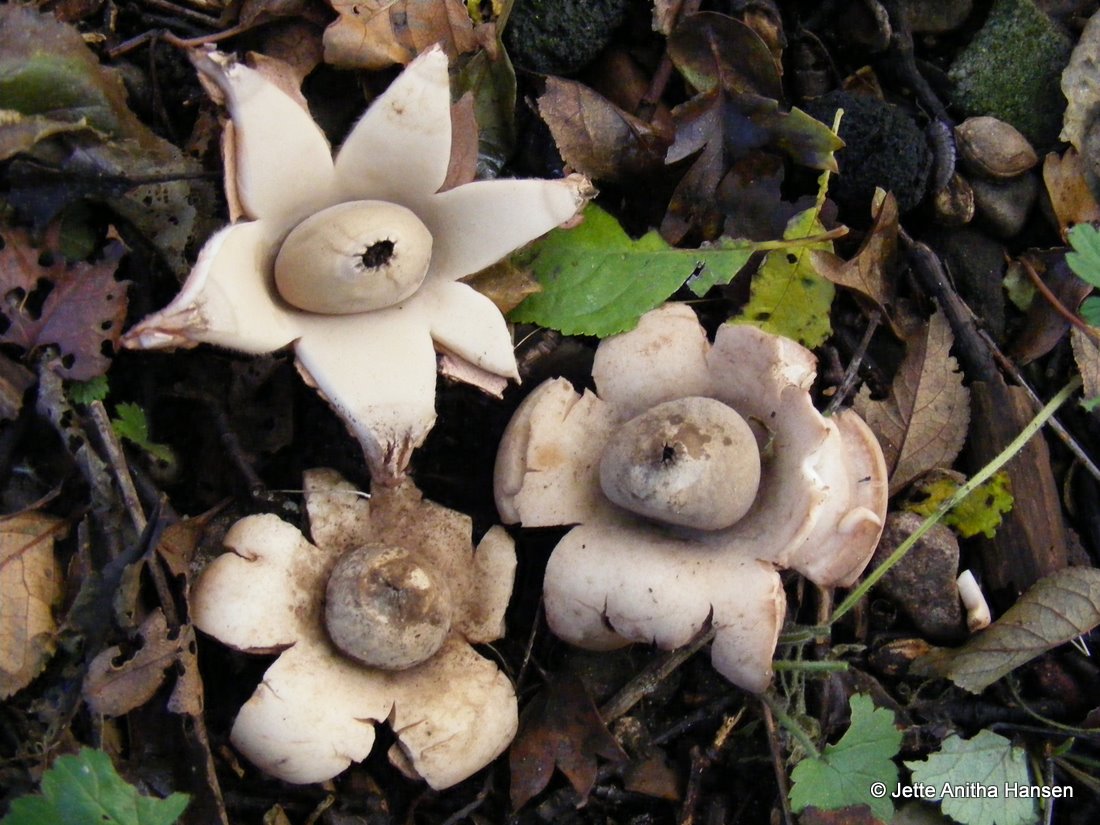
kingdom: Fungi
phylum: Basidiomycota
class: Agaricomycetes
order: Geastrales
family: Geastraceae
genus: Geastrum
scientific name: Geastrum michelianum
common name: kødet stjernebold
